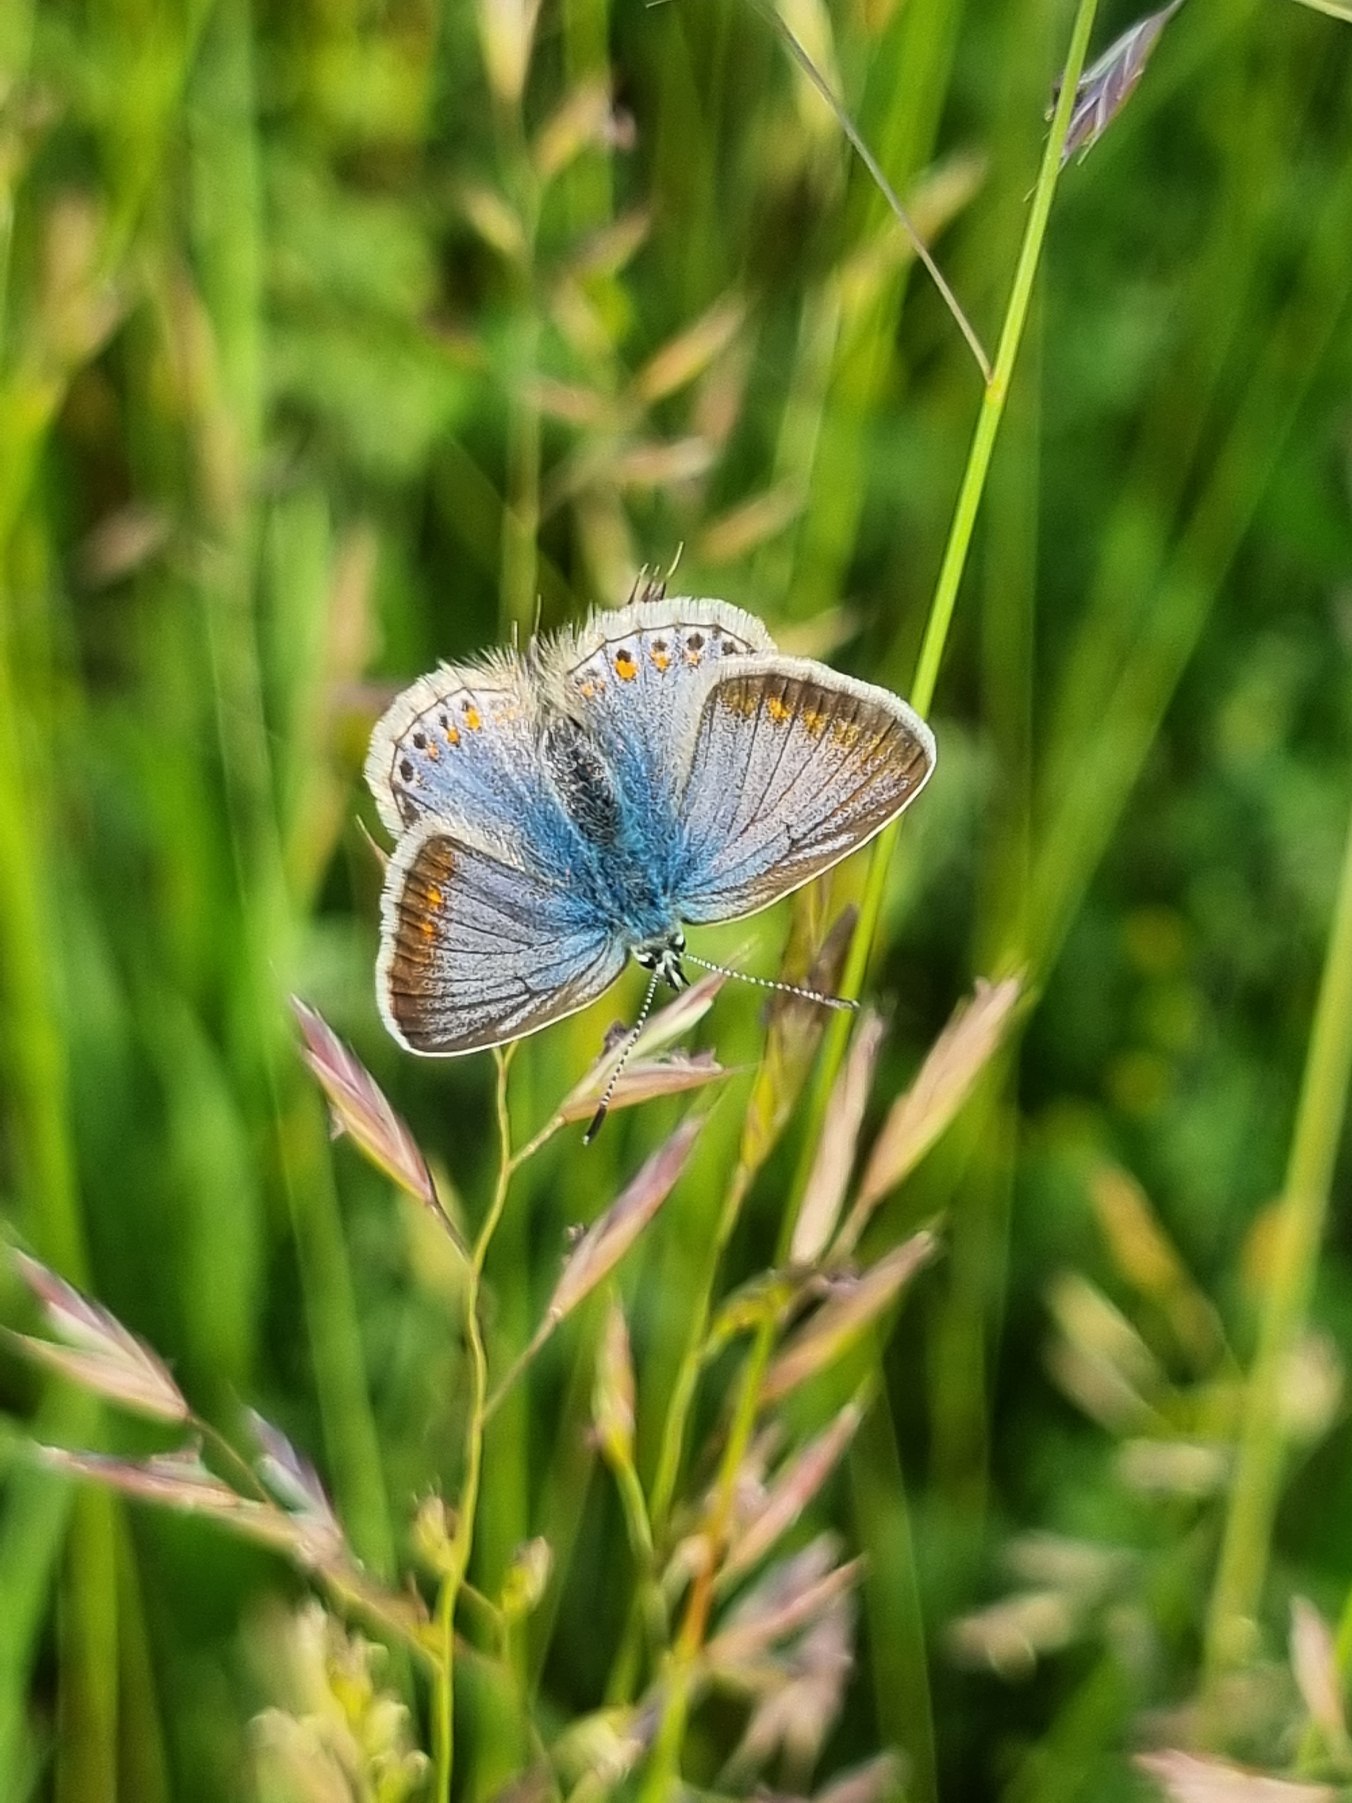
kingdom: Animalia
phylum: Arthropoda
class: Insecta
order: Lepidoptera
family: Lycaenidae
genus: Polyommatus
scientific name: Polyommatus icarus
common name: Almindelig blåfugl
